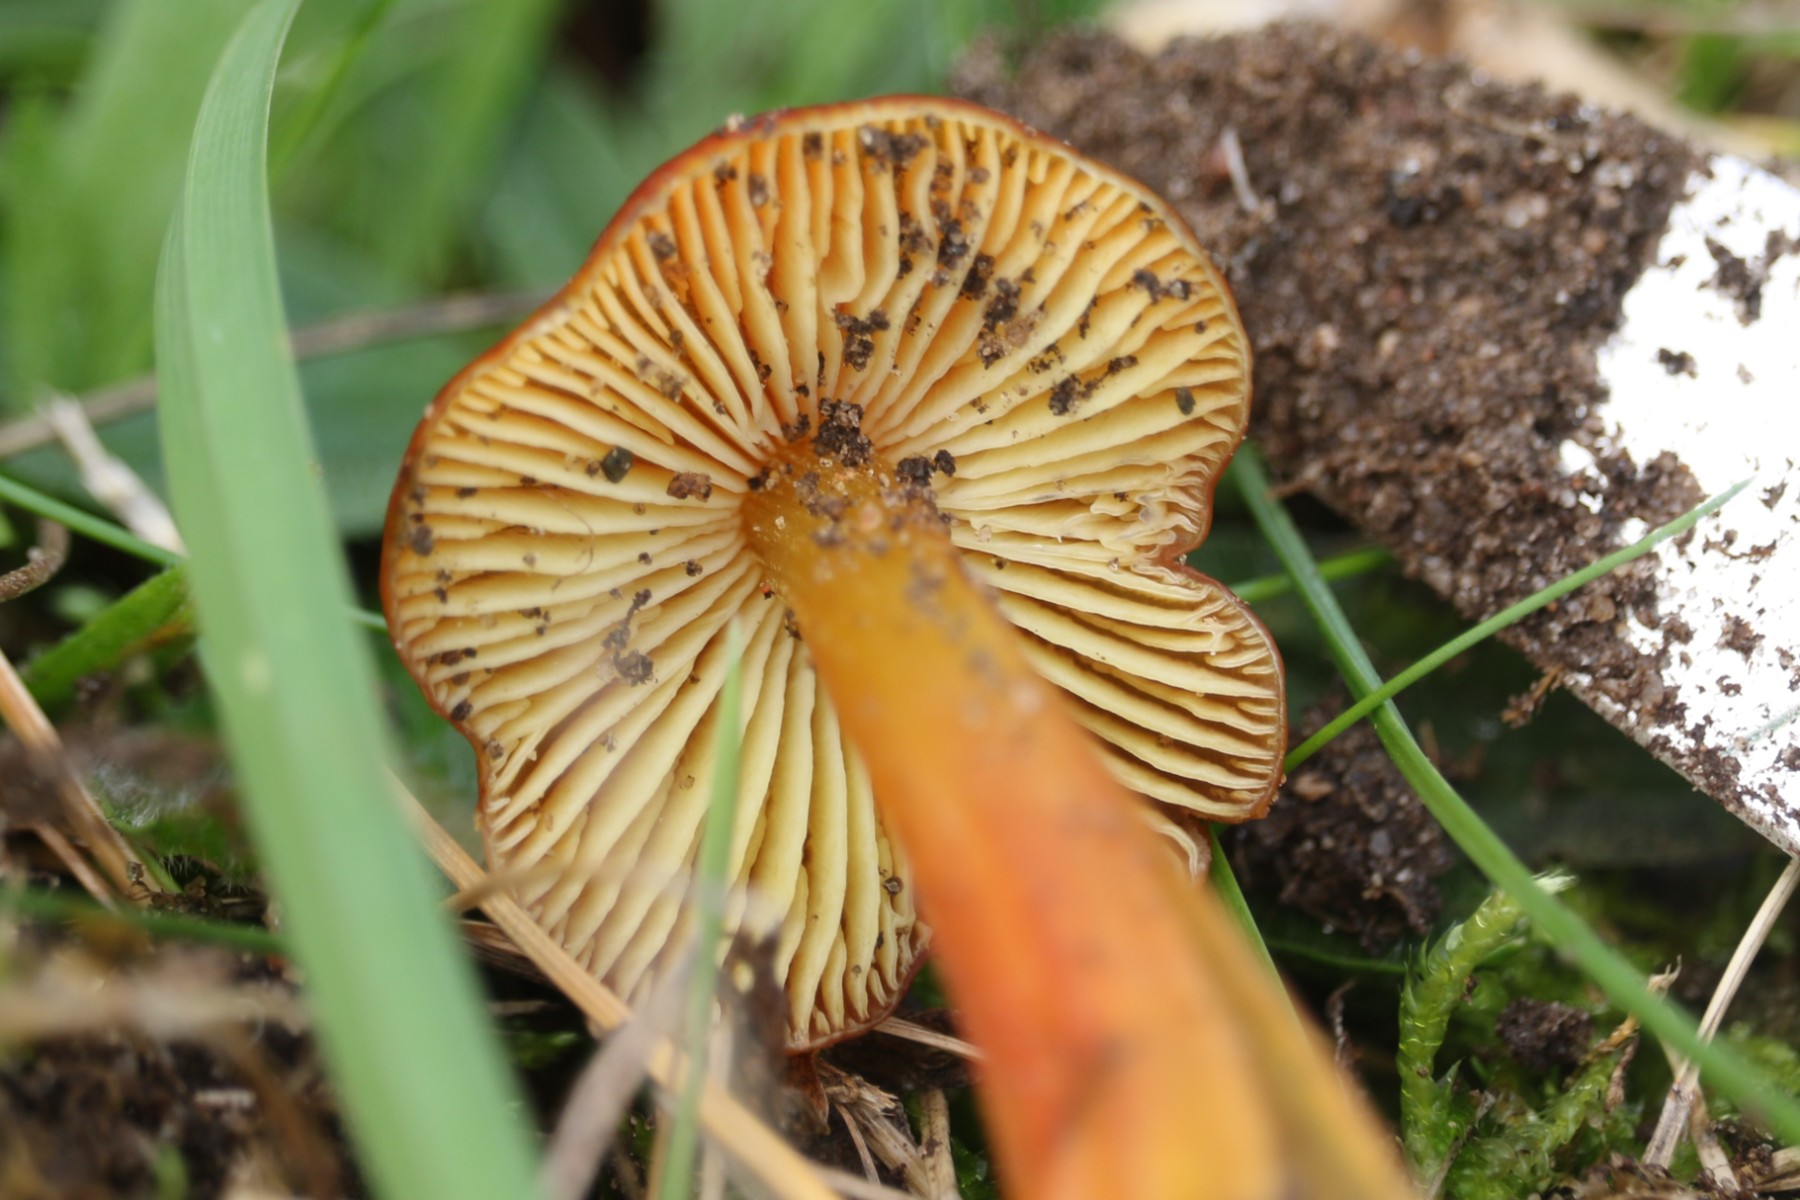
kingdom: Fungi
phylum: Basidiomycota
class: Agaricomycetes
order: Agaricales
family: Hygrophoraceae
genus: Hygrocybe
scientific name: Hygrocybe conica
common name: kegle-vokshat
